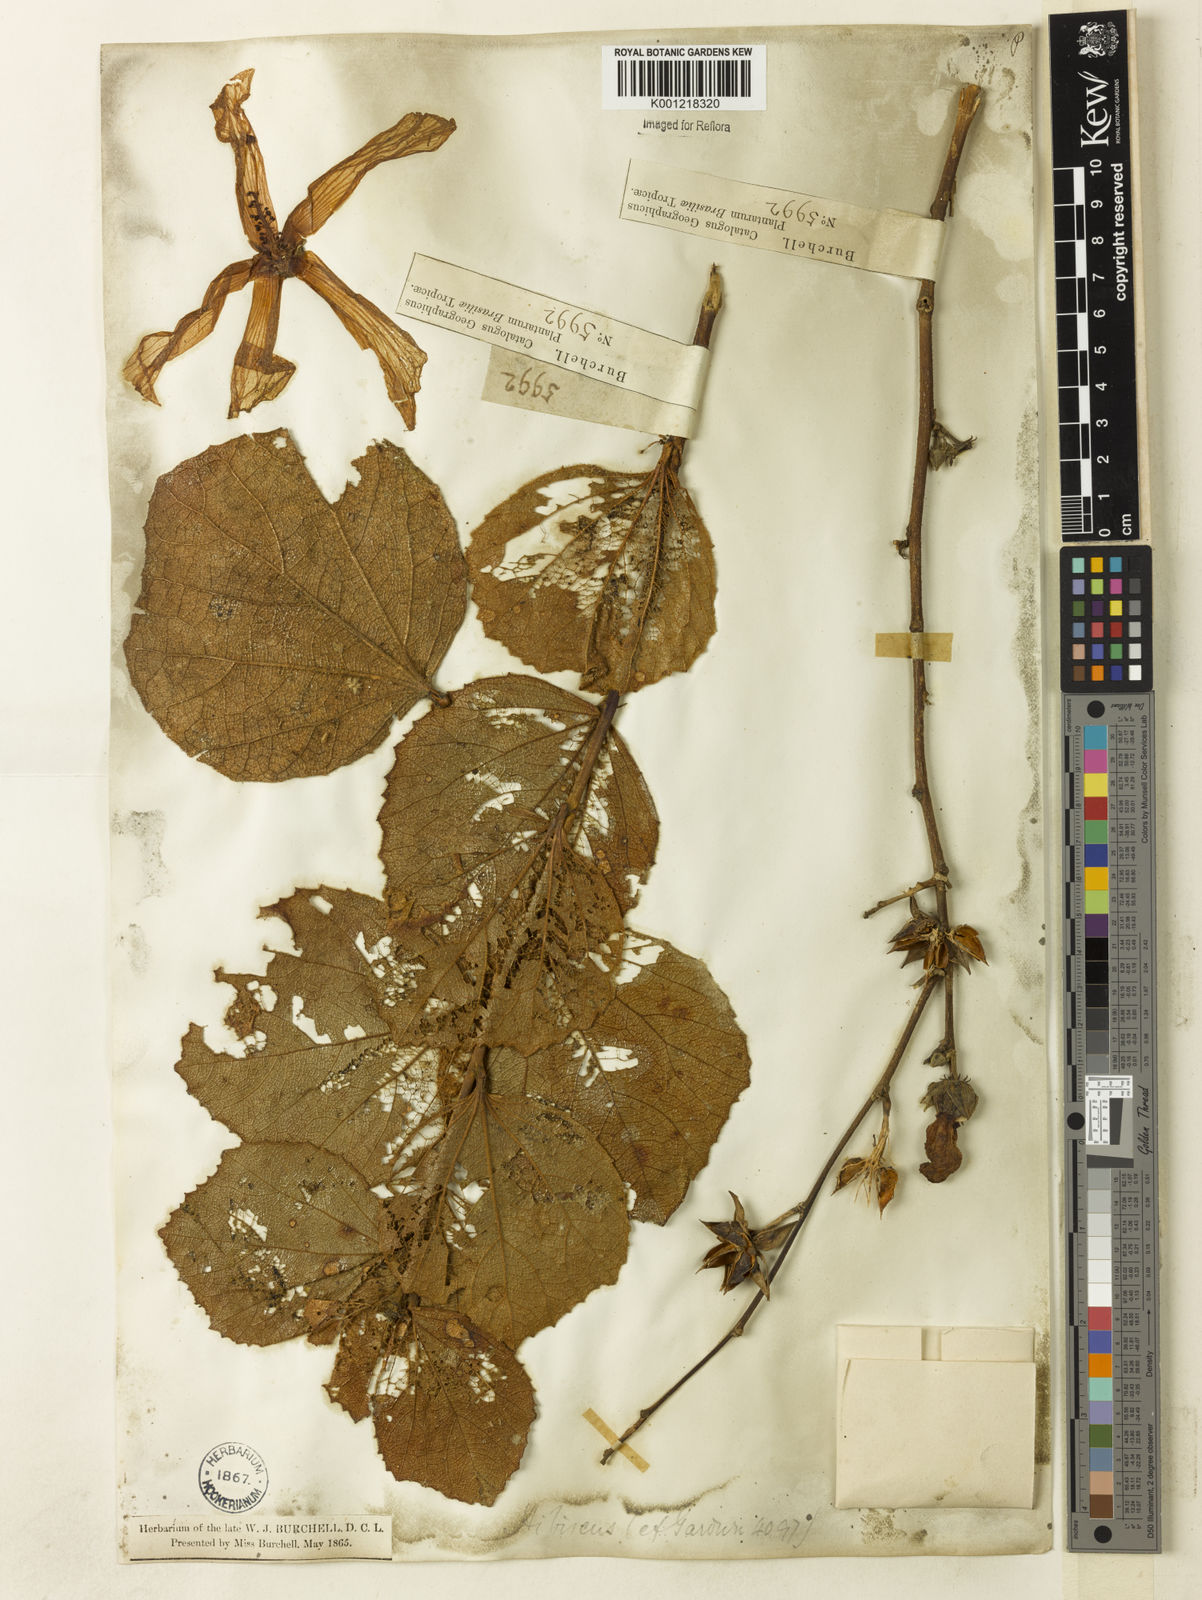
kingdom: Plantae
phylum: Tracheophyta
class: Magnoliopsida
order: Malvales
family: Malvaceae
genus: Hibiscus
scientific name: Hibiscus wilsonii
